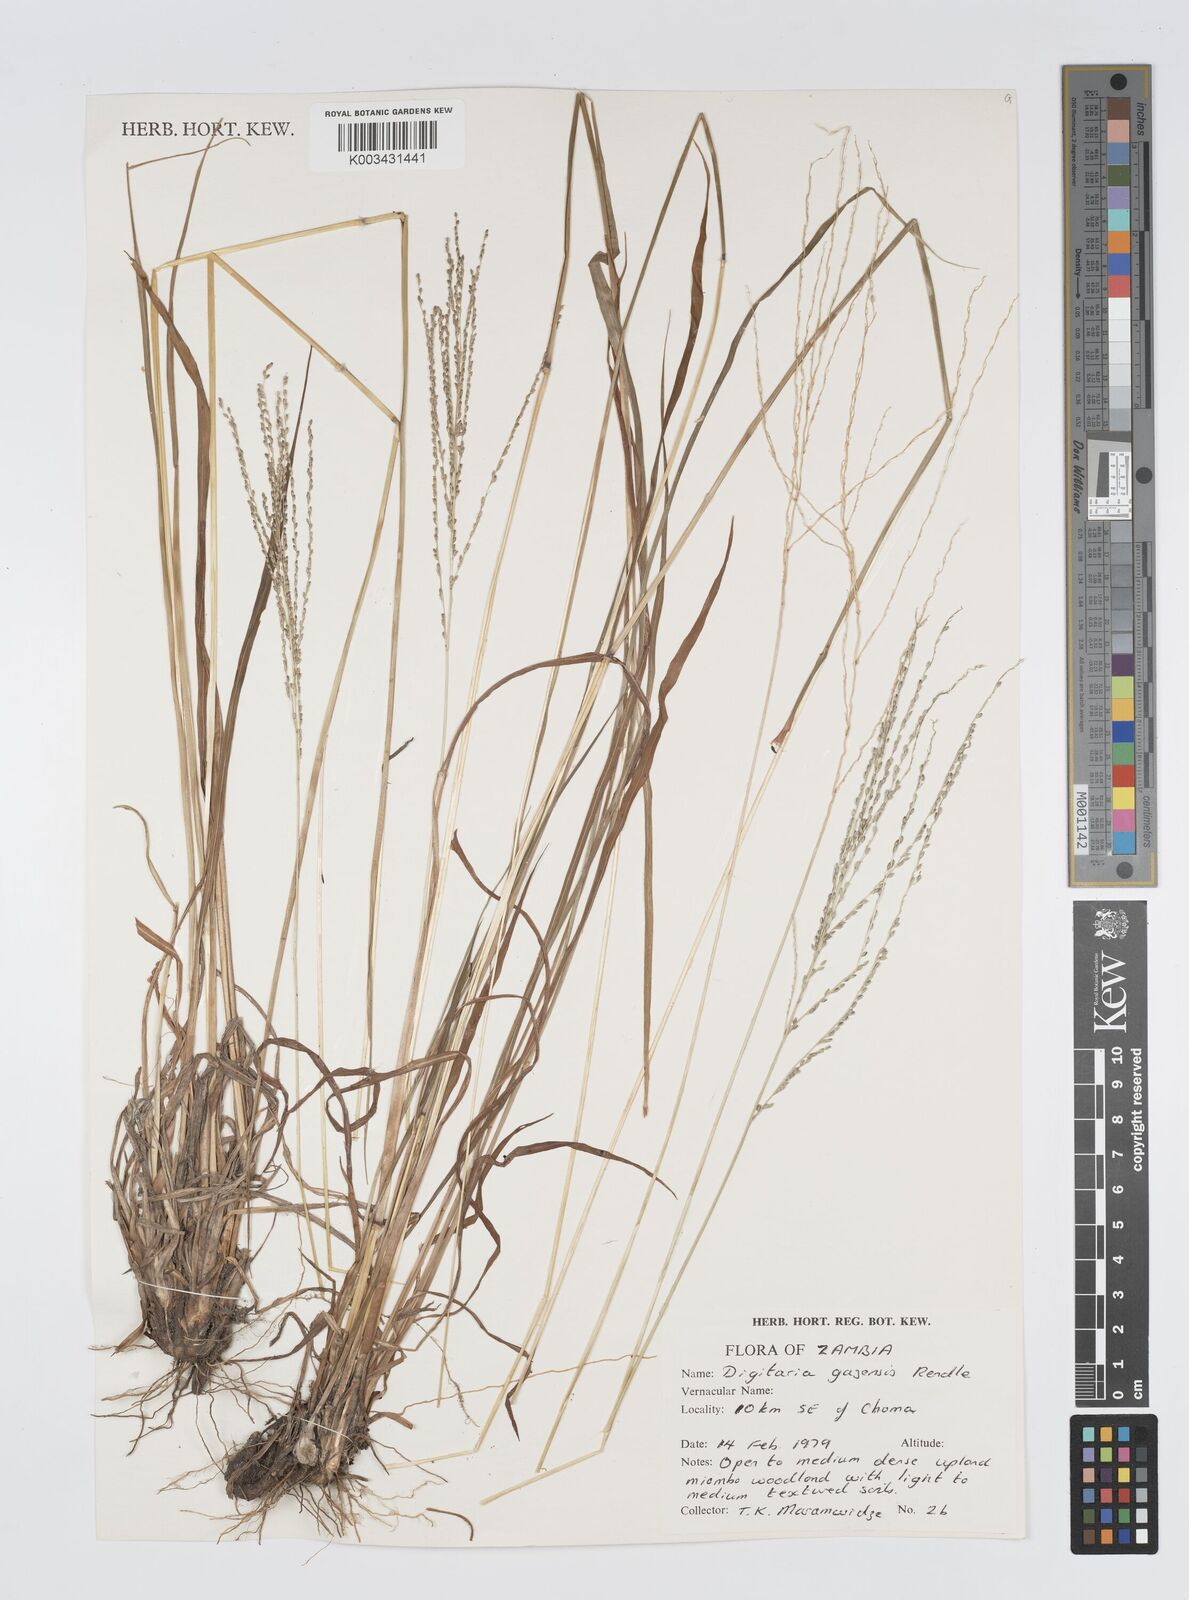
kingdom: Plantae
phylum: Tracheophyta
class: Liliopsida
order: Poales
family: Poaceae
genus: Digitaria
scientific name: Digitaria gazensis
